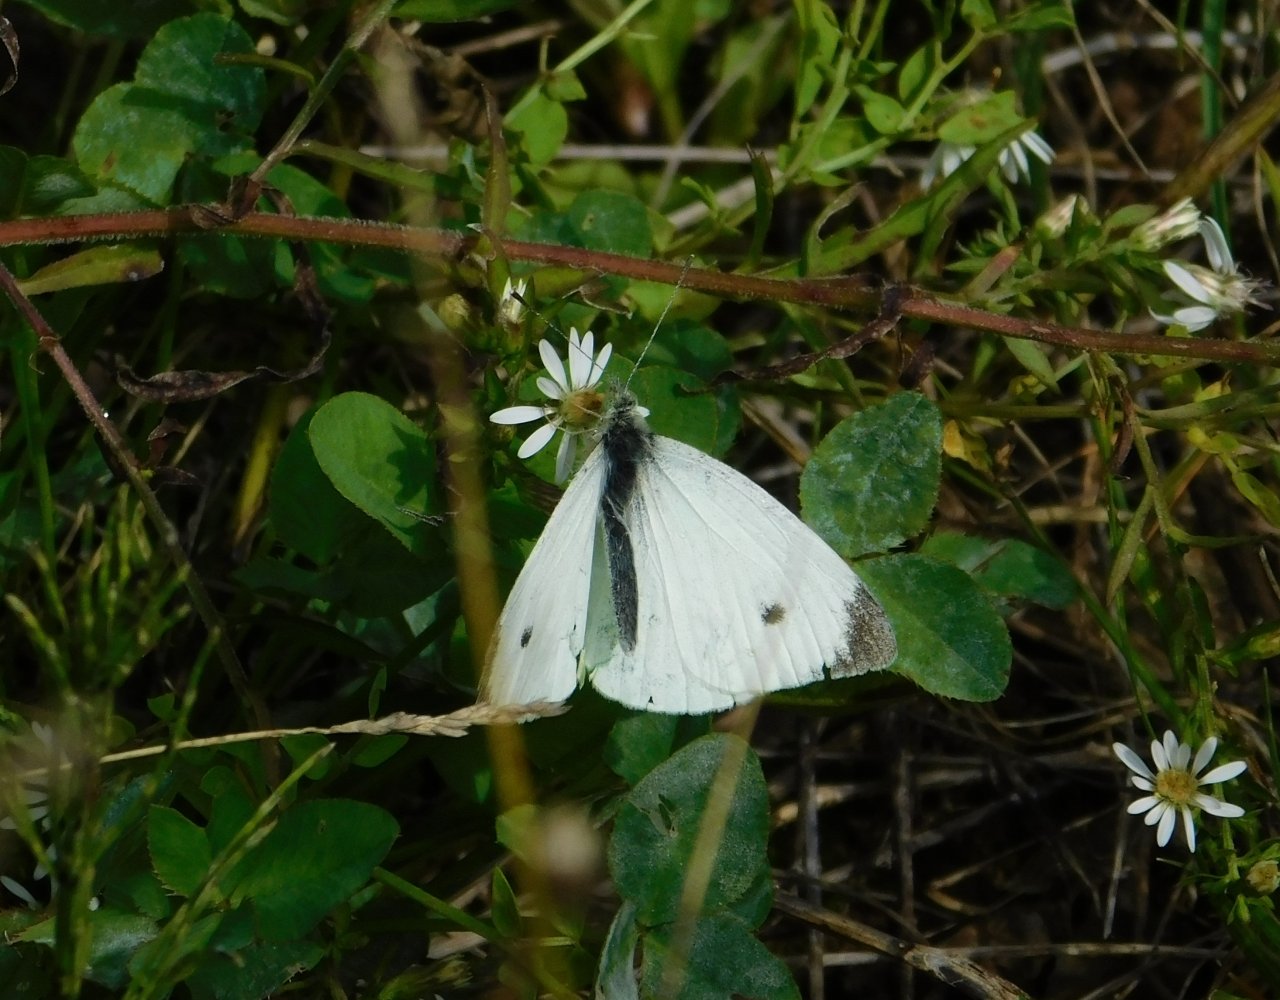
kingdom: Animalia
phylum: Arthropoda
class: Insecta
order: Lepidoptera
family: Pieridae
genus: Pieris
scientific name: Pieris rapae
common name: Cabbage White
